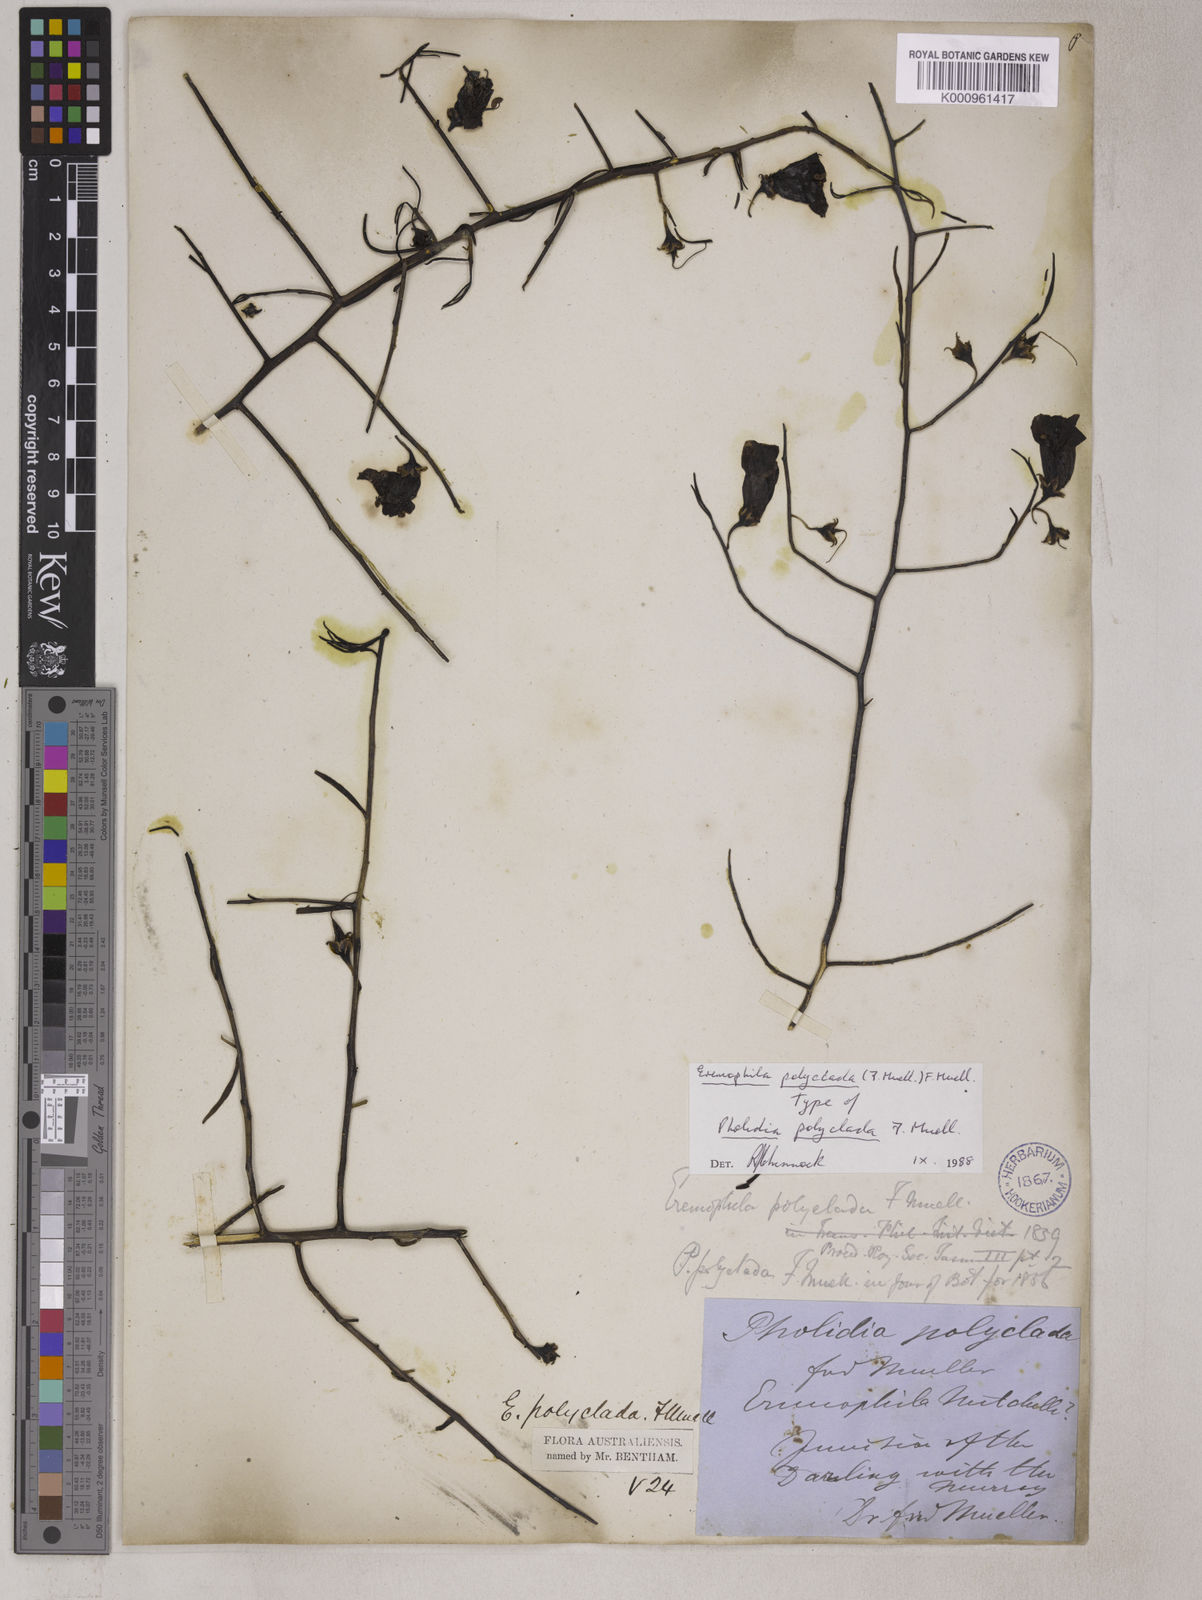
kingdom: Plantae
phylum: Tracheophyta
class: Magnoliopsida
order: Lamiales
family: Scrophulariaceae
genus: Eremophila
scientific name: Eremophila polyclada
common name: Lignum-fuchsia
